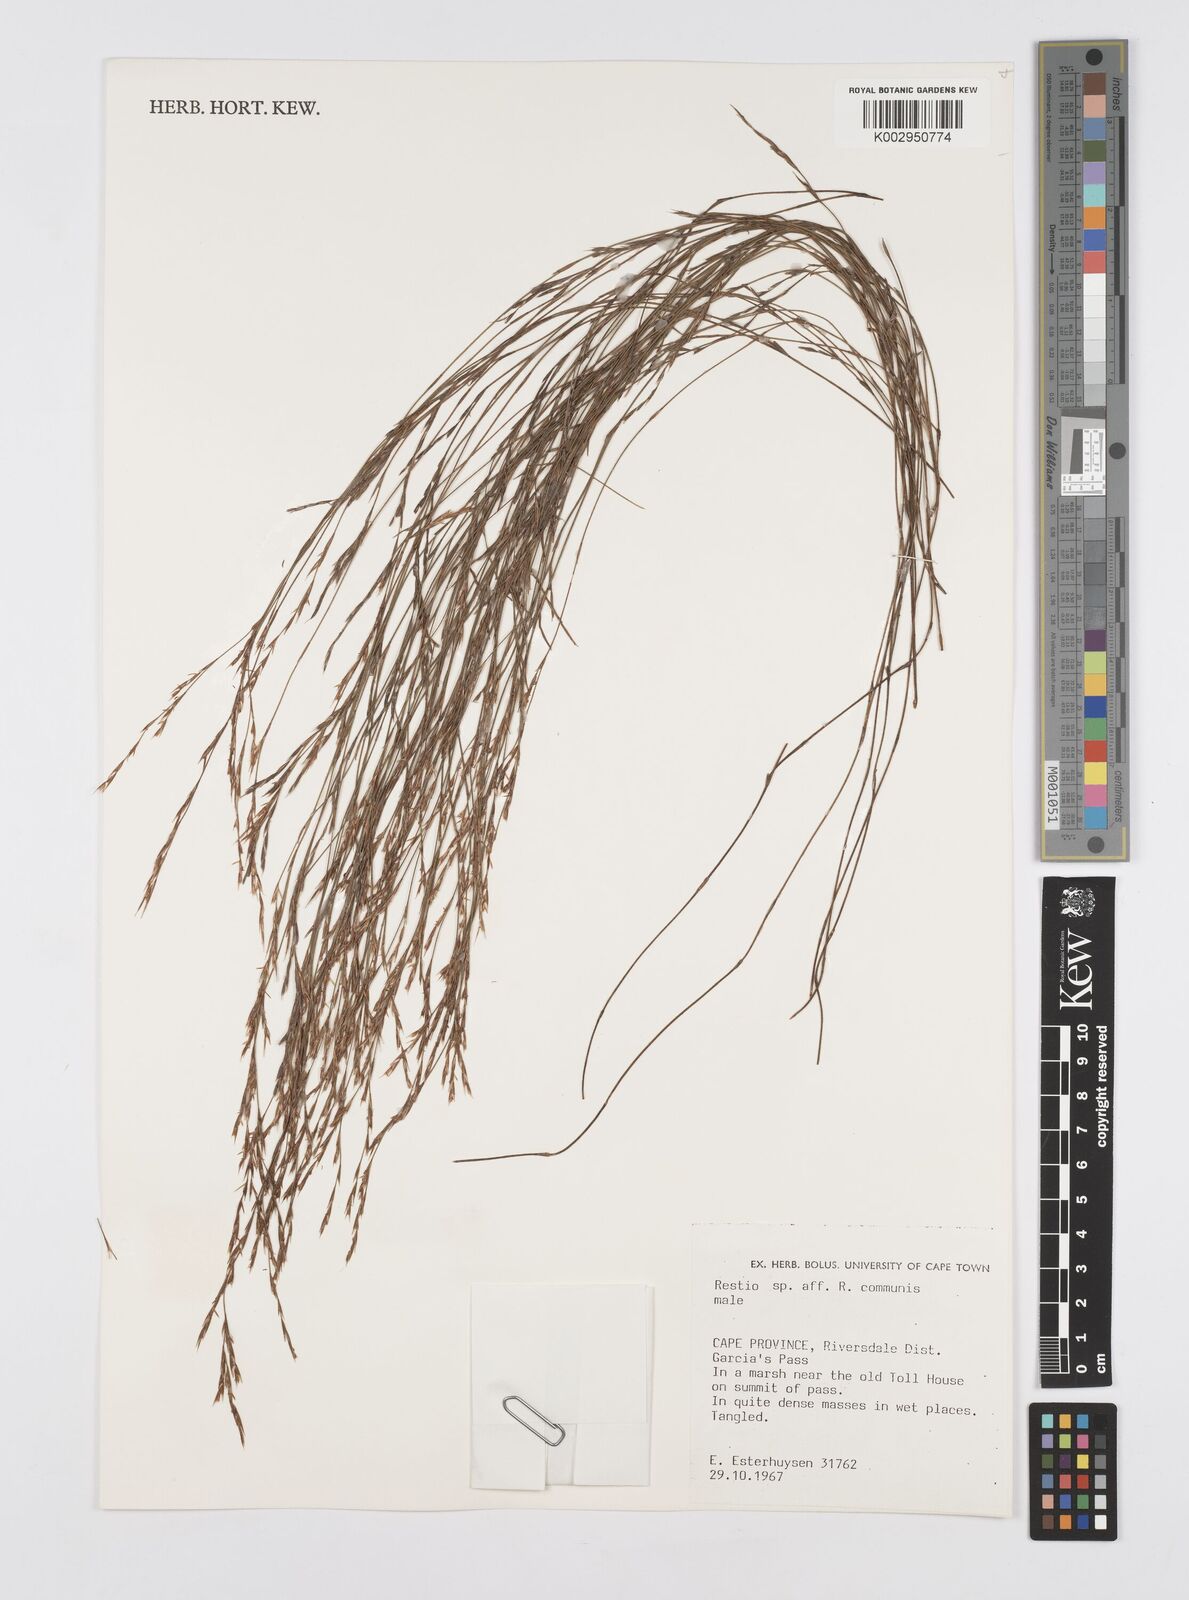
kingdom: Plantae
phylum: Tracheophyta
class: Liliopsida
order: Poales
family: Restionaceae
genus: Restio
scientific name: Restio communis
